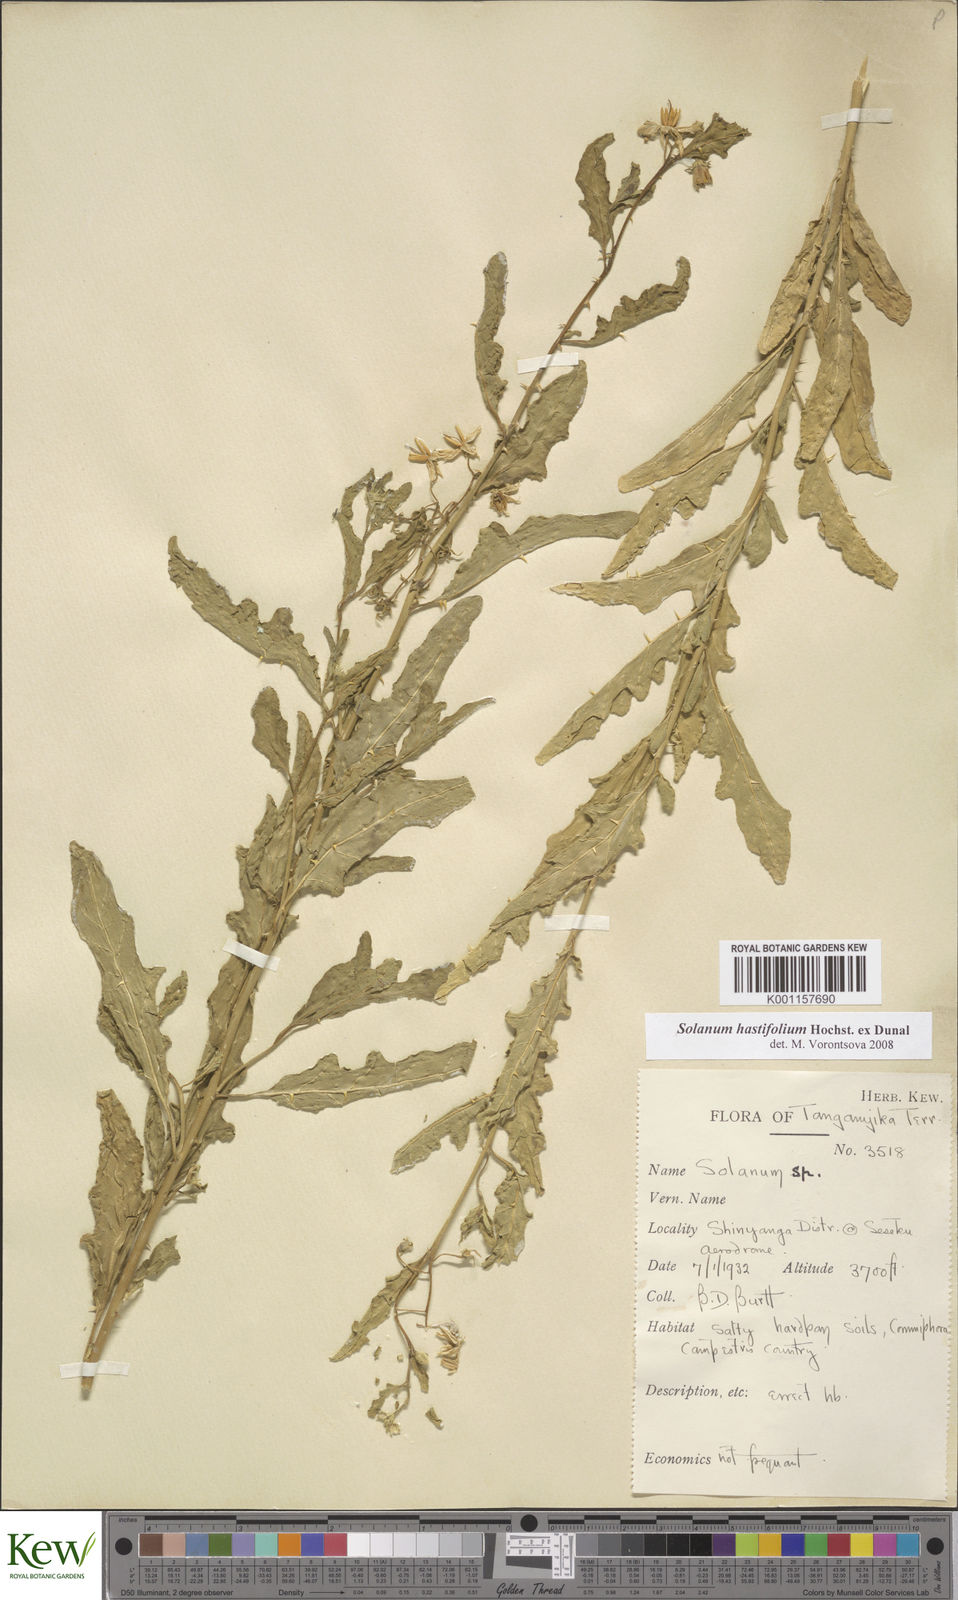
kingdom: Plantae
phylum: Tracheophyta
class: Magnoliopsida
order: Solanales
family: Solanaceae
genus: Solanum
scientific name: Solanum hastifolium
